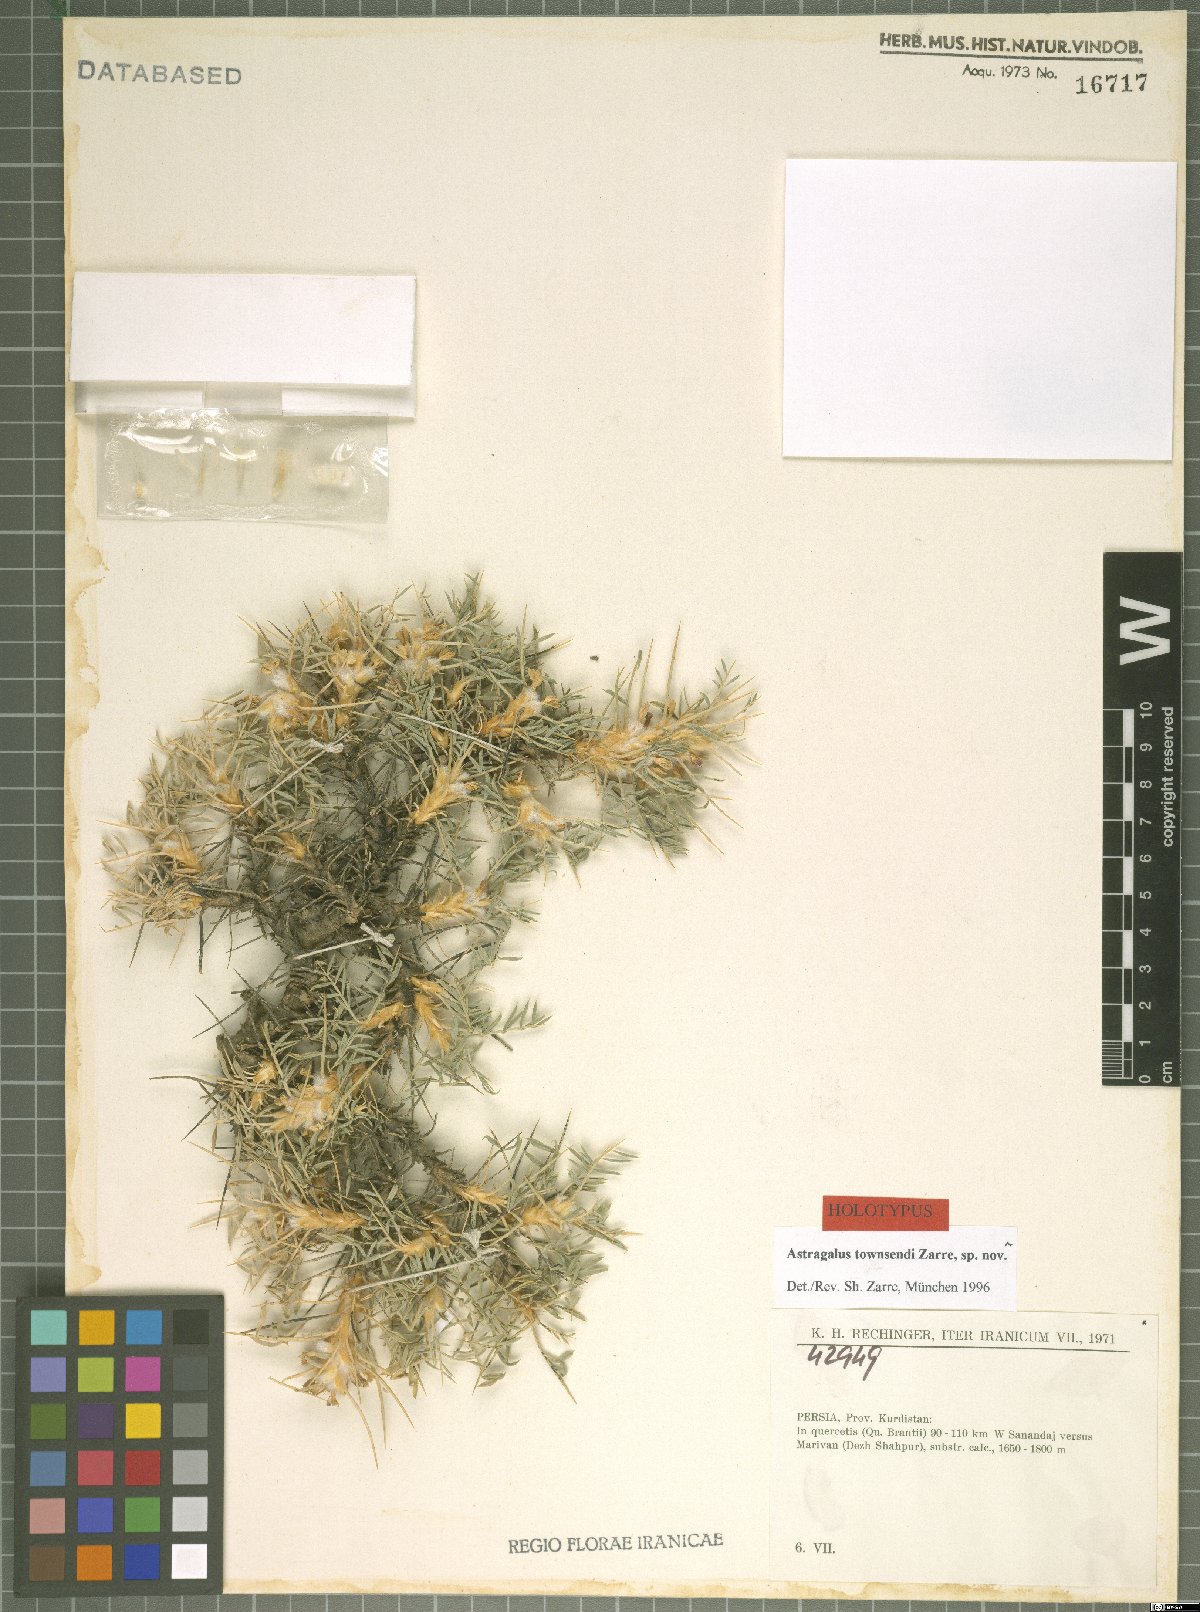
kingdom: Plantae
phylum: Tracheophyta
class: Magnoliopsida
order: Fabales
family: Fabaceae
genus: Astragalus
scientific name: Astragalus townsendii
